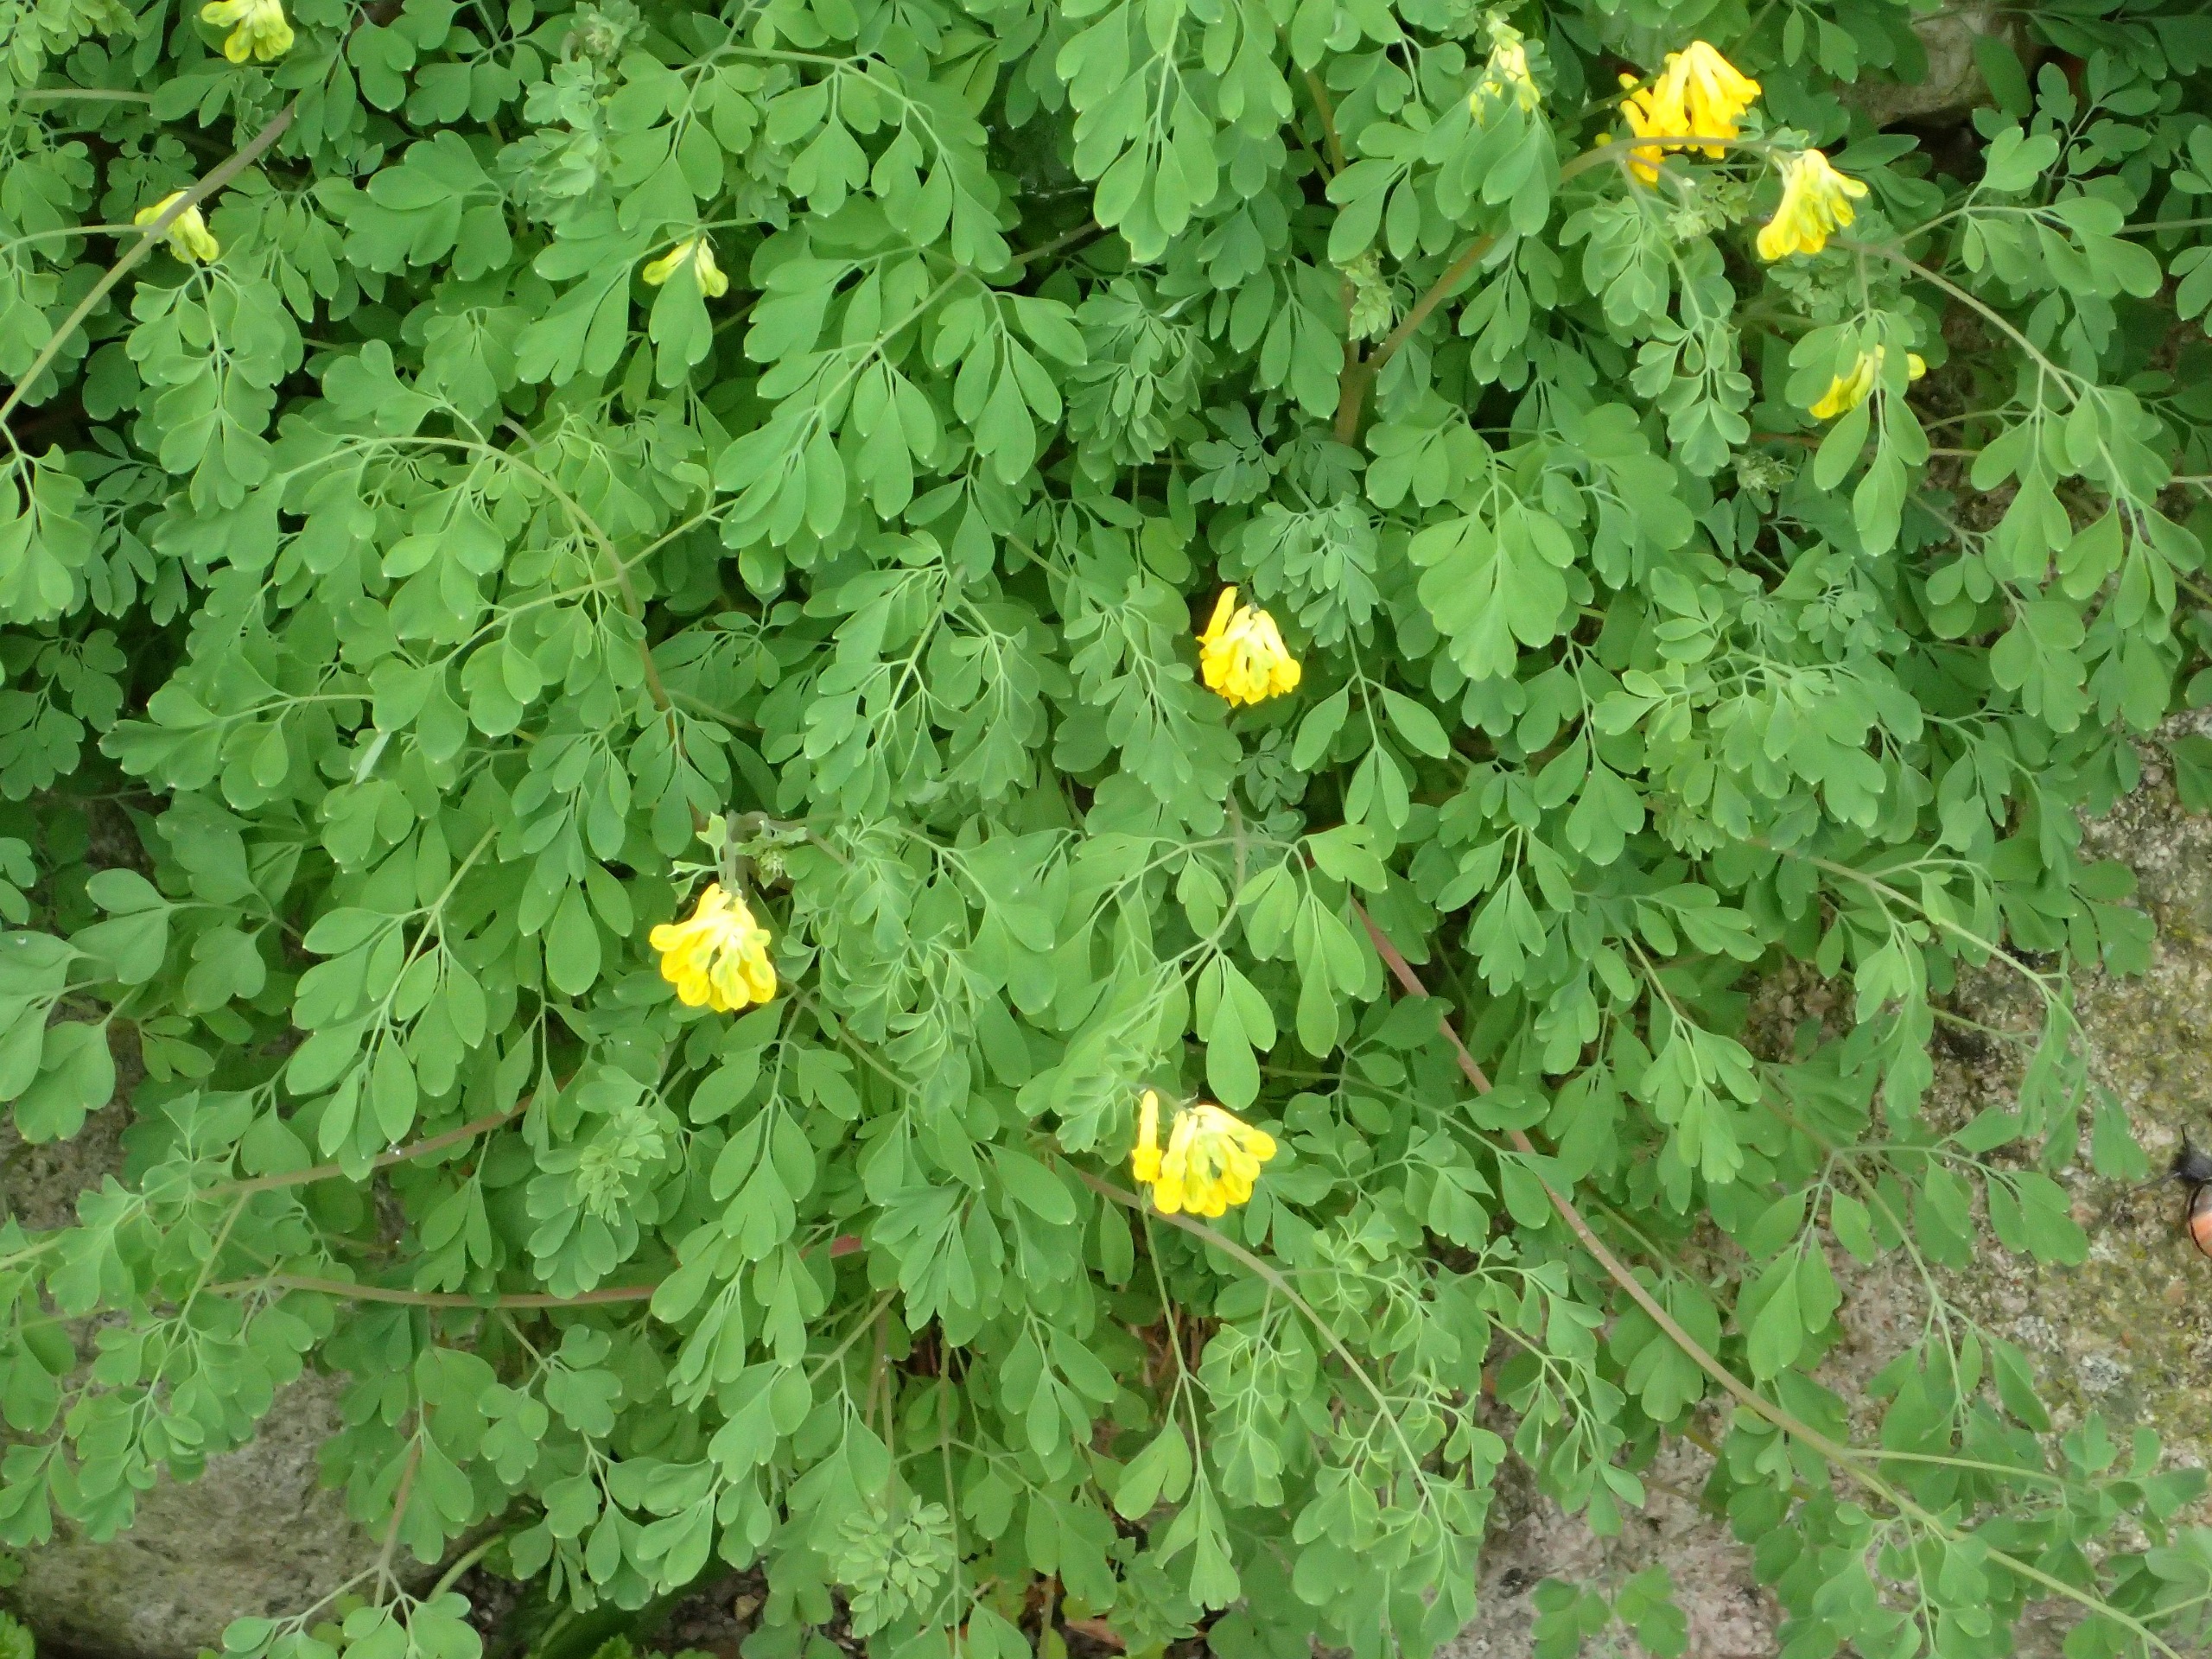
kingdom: Plantae
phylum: Tracheophyta
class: Magnoliopsida
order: Ranunculales
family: Papaveraceae
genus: Pseudofumaria
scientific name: Pseudofumaria lutea
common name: Gul lærkespore
